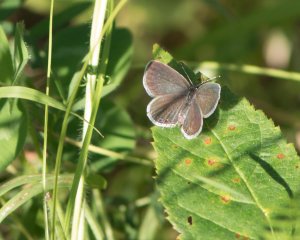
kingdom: Animalia
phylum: Arthropoda
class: Insecta
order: Lepidoptera
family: Lycaenidae
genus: Elkalyce
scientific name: Elkalyce comyntas
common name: Eastern Tailed-Blue
